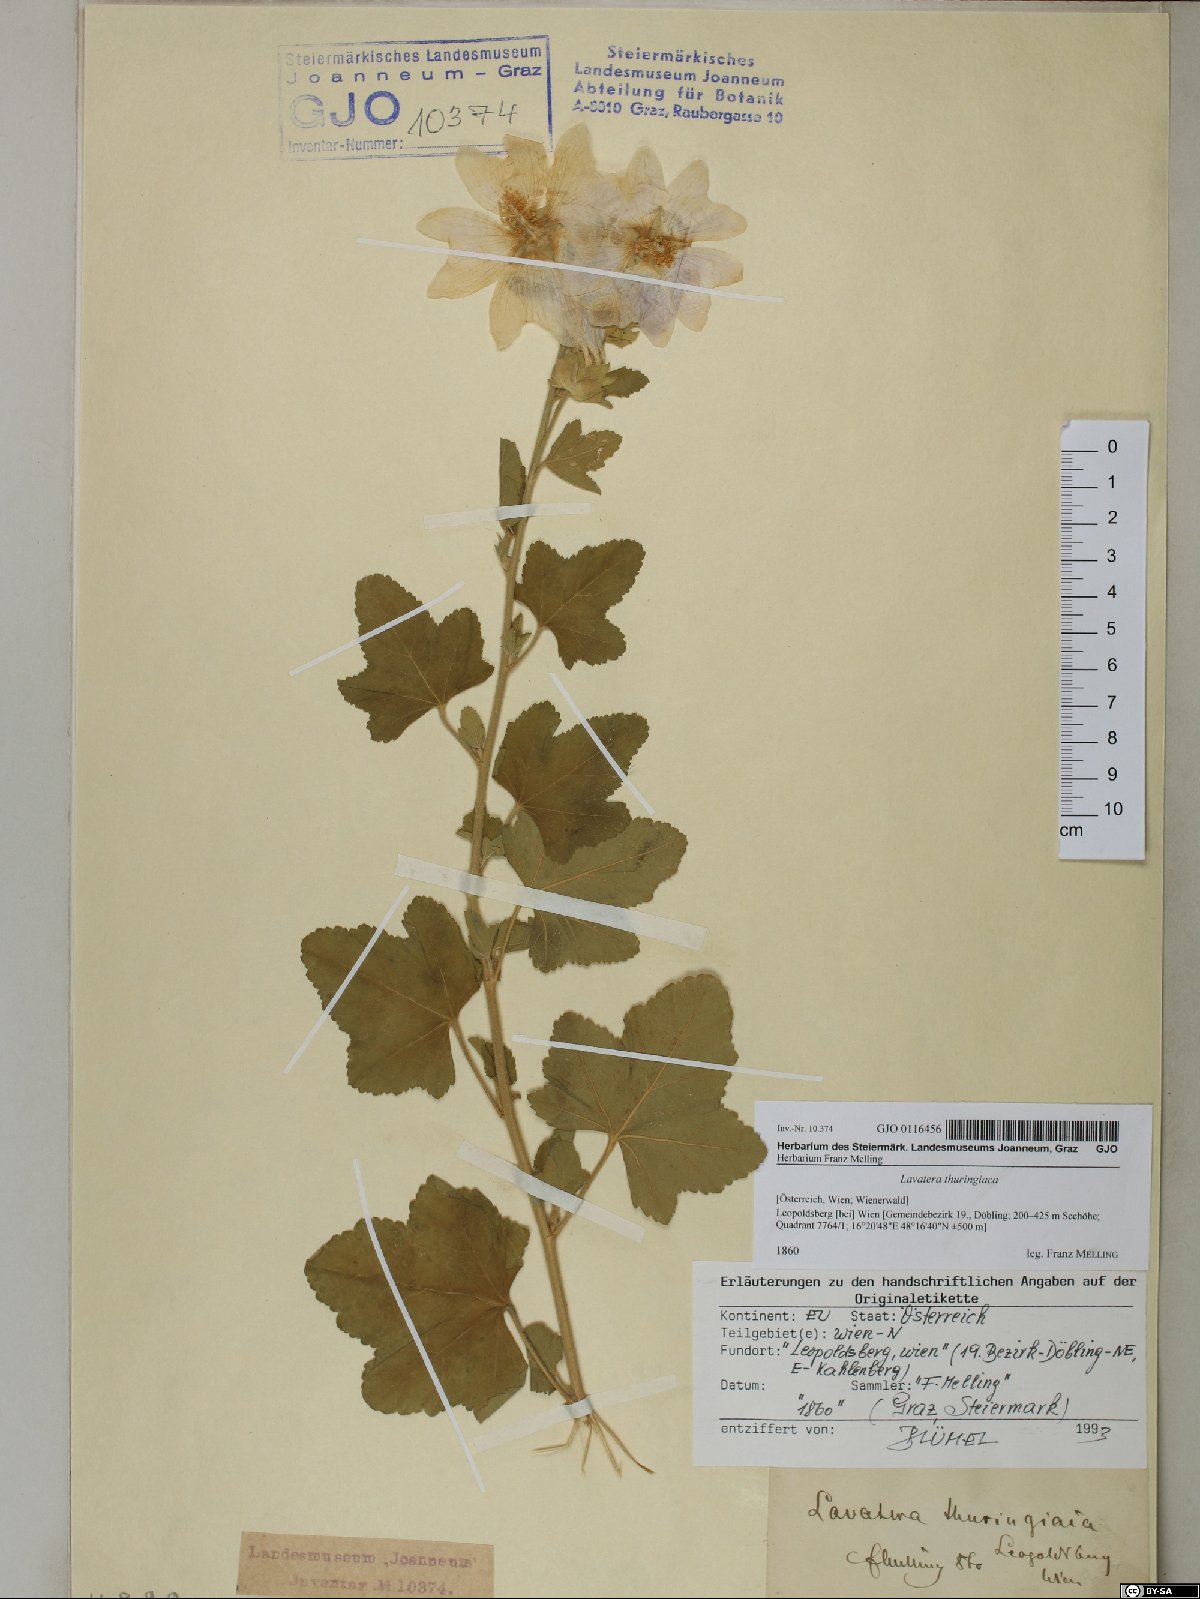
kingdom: Plantae
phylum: Tracheophyta
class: Magnoliopsida
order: Malvales
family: Malvaceae
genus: Malva
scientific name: Malva thuringiaca
